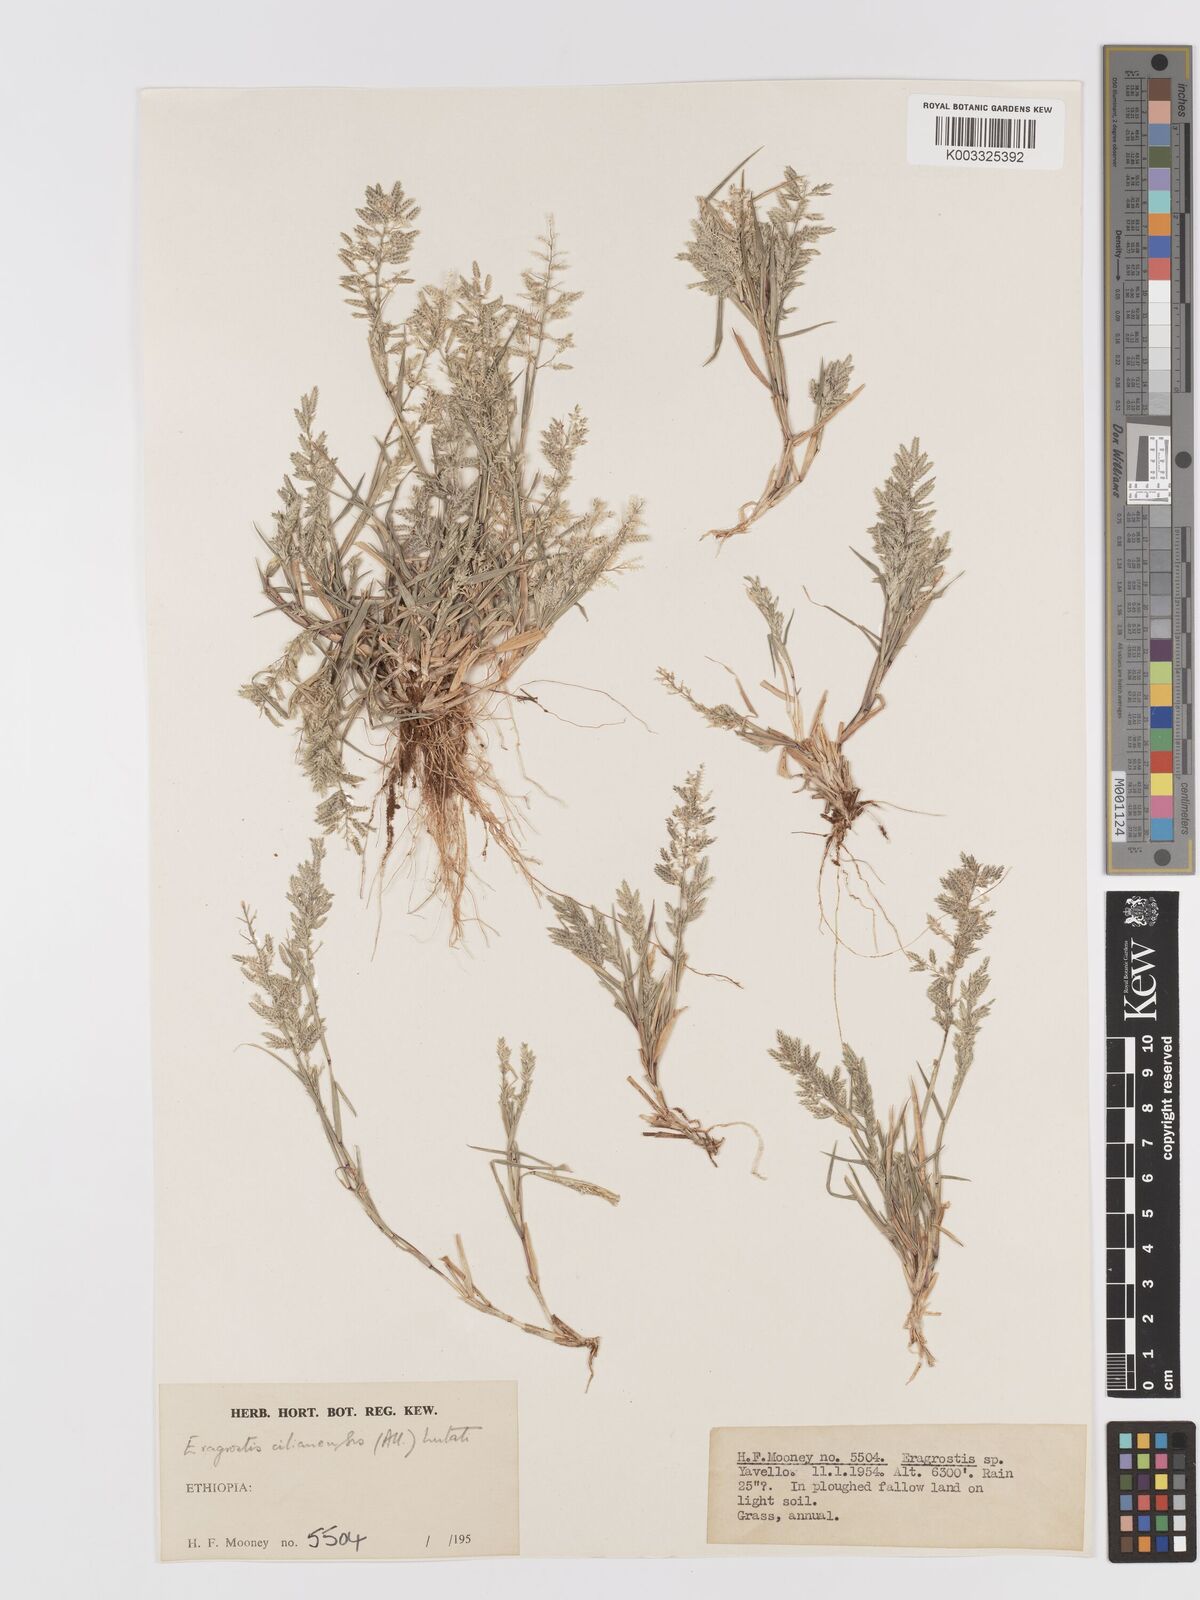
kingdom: Plantae
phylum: Tracheophyta
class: Liliopsida
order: Poales
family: Poaceae
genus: Eragrostis
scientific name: Eragrostis cilianensis
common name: Stinkgrass
